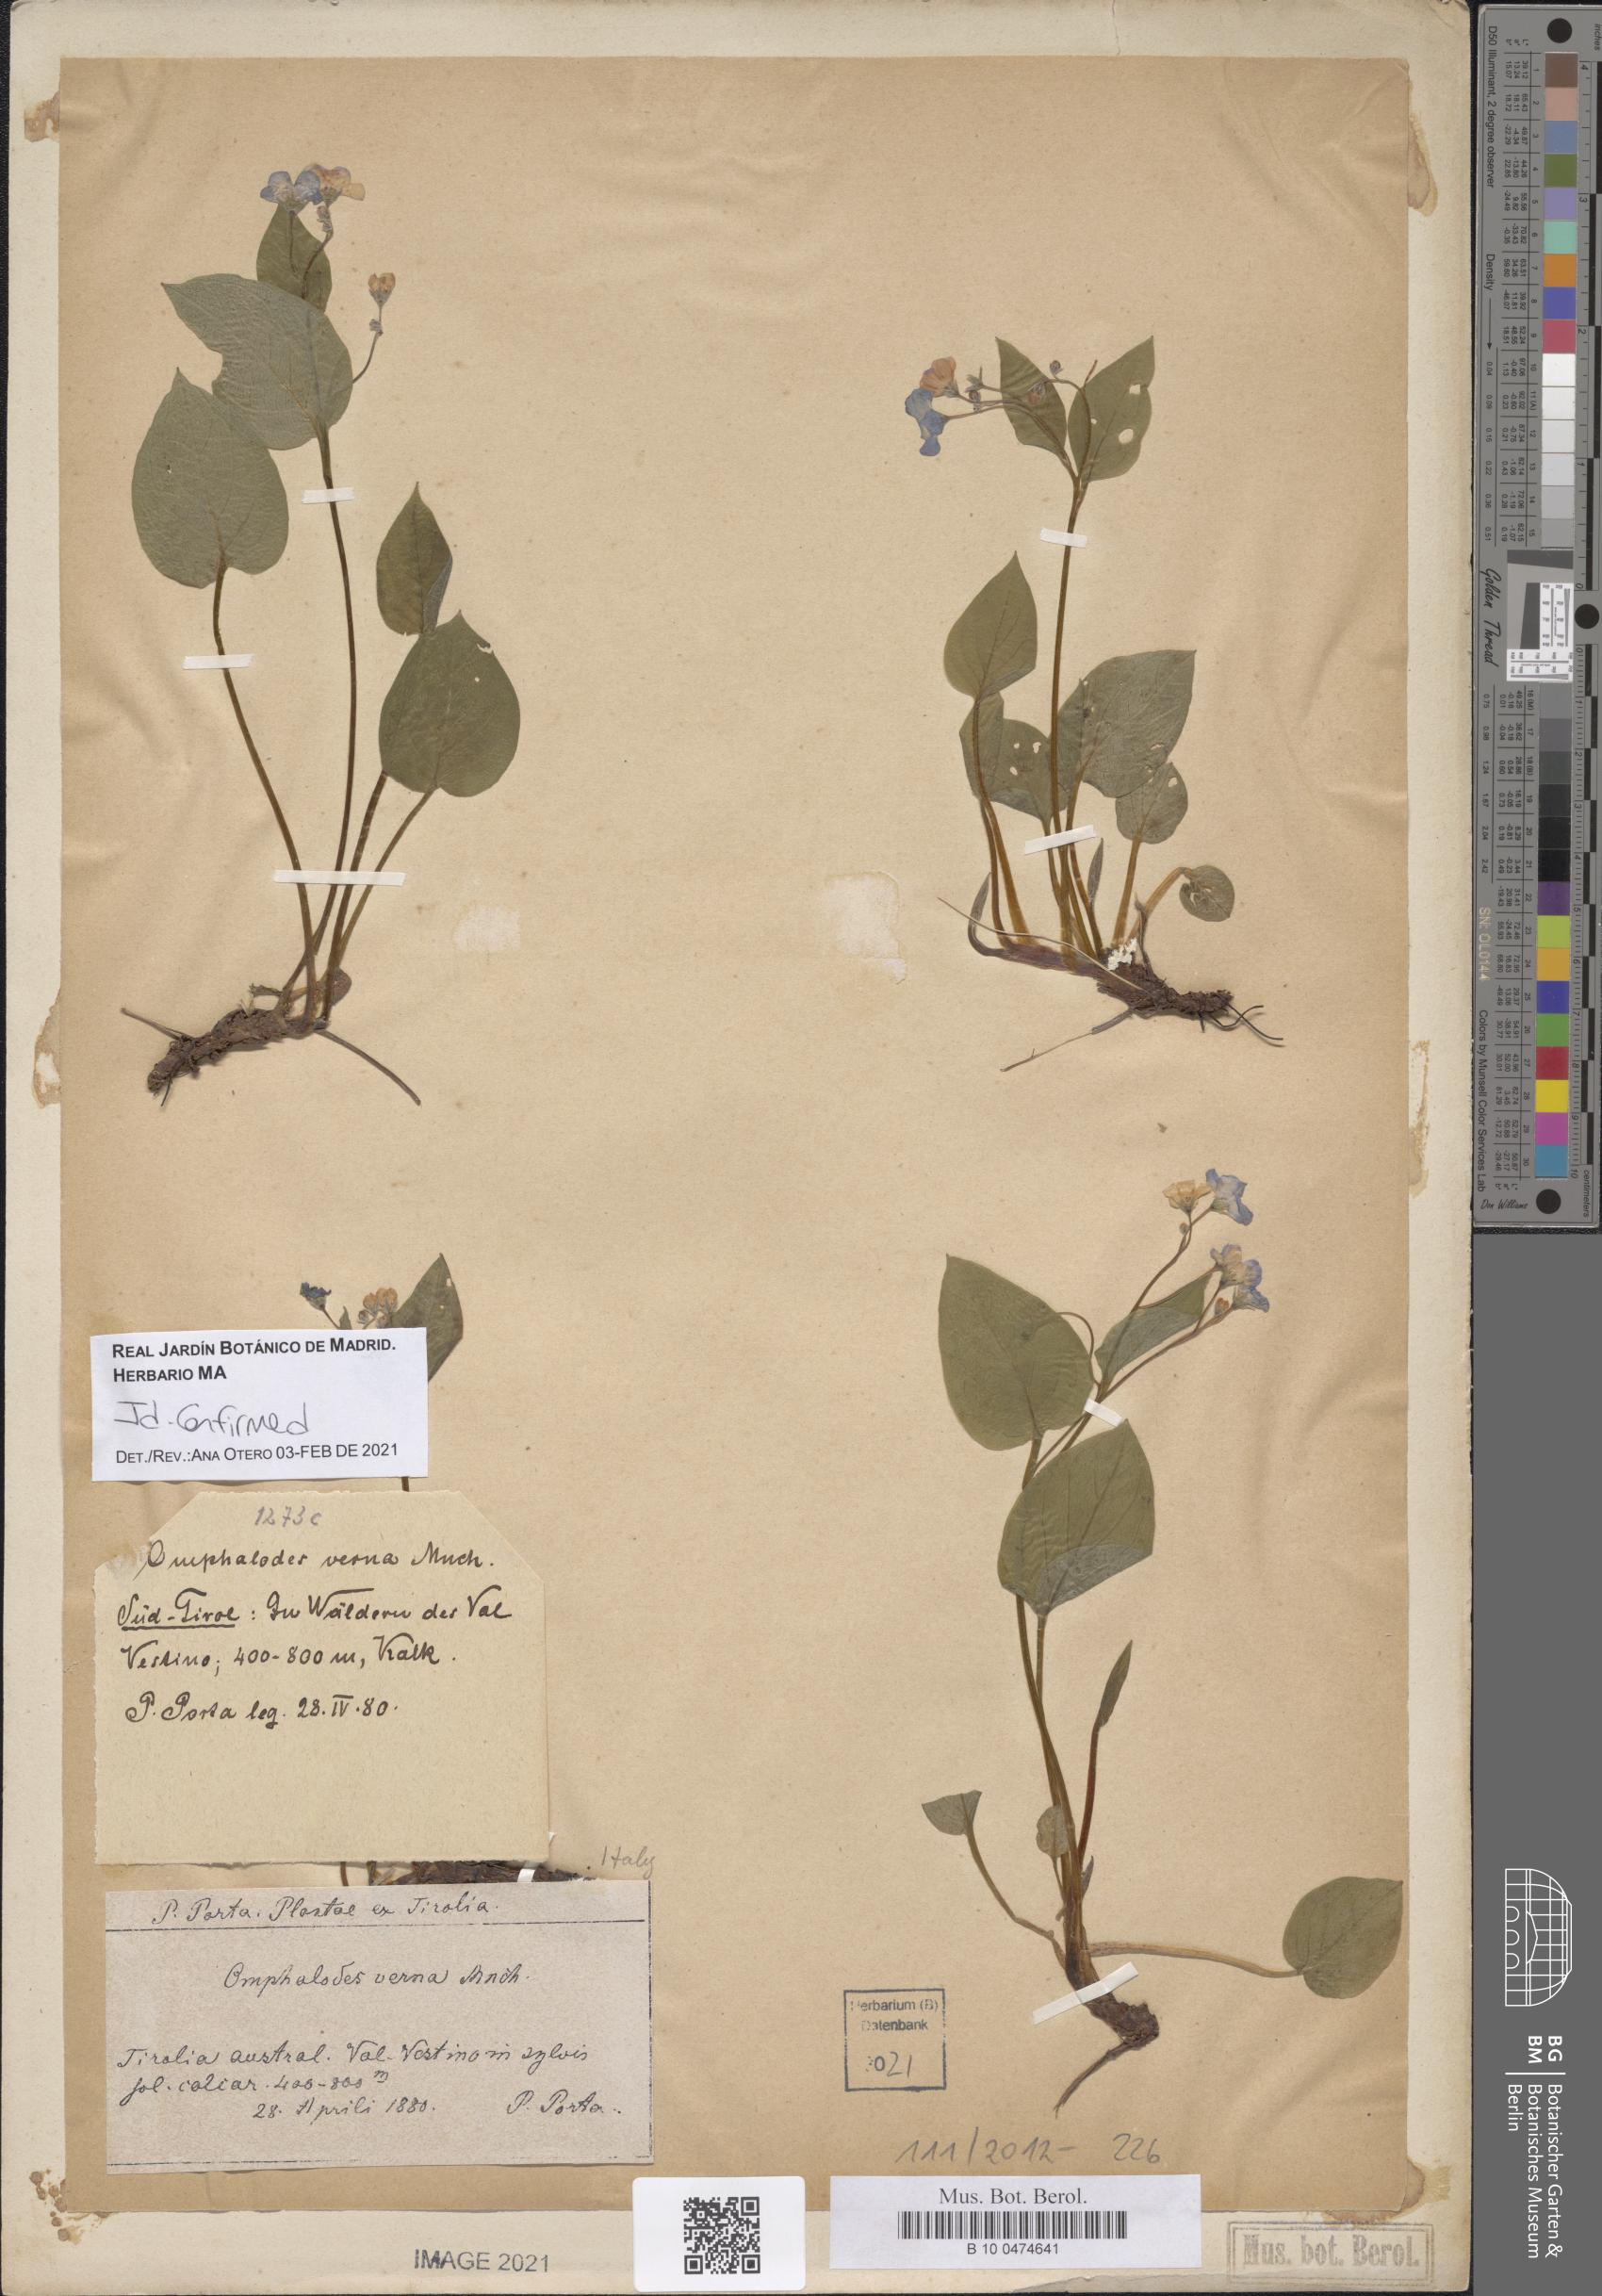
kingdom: Plantae
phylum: Tracheophyta
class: Magnoliopsida
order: Boraginales
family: Boraginaceae
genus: Omphalodes
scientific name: Omphalodes verna
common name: Blue-eyed-mary
